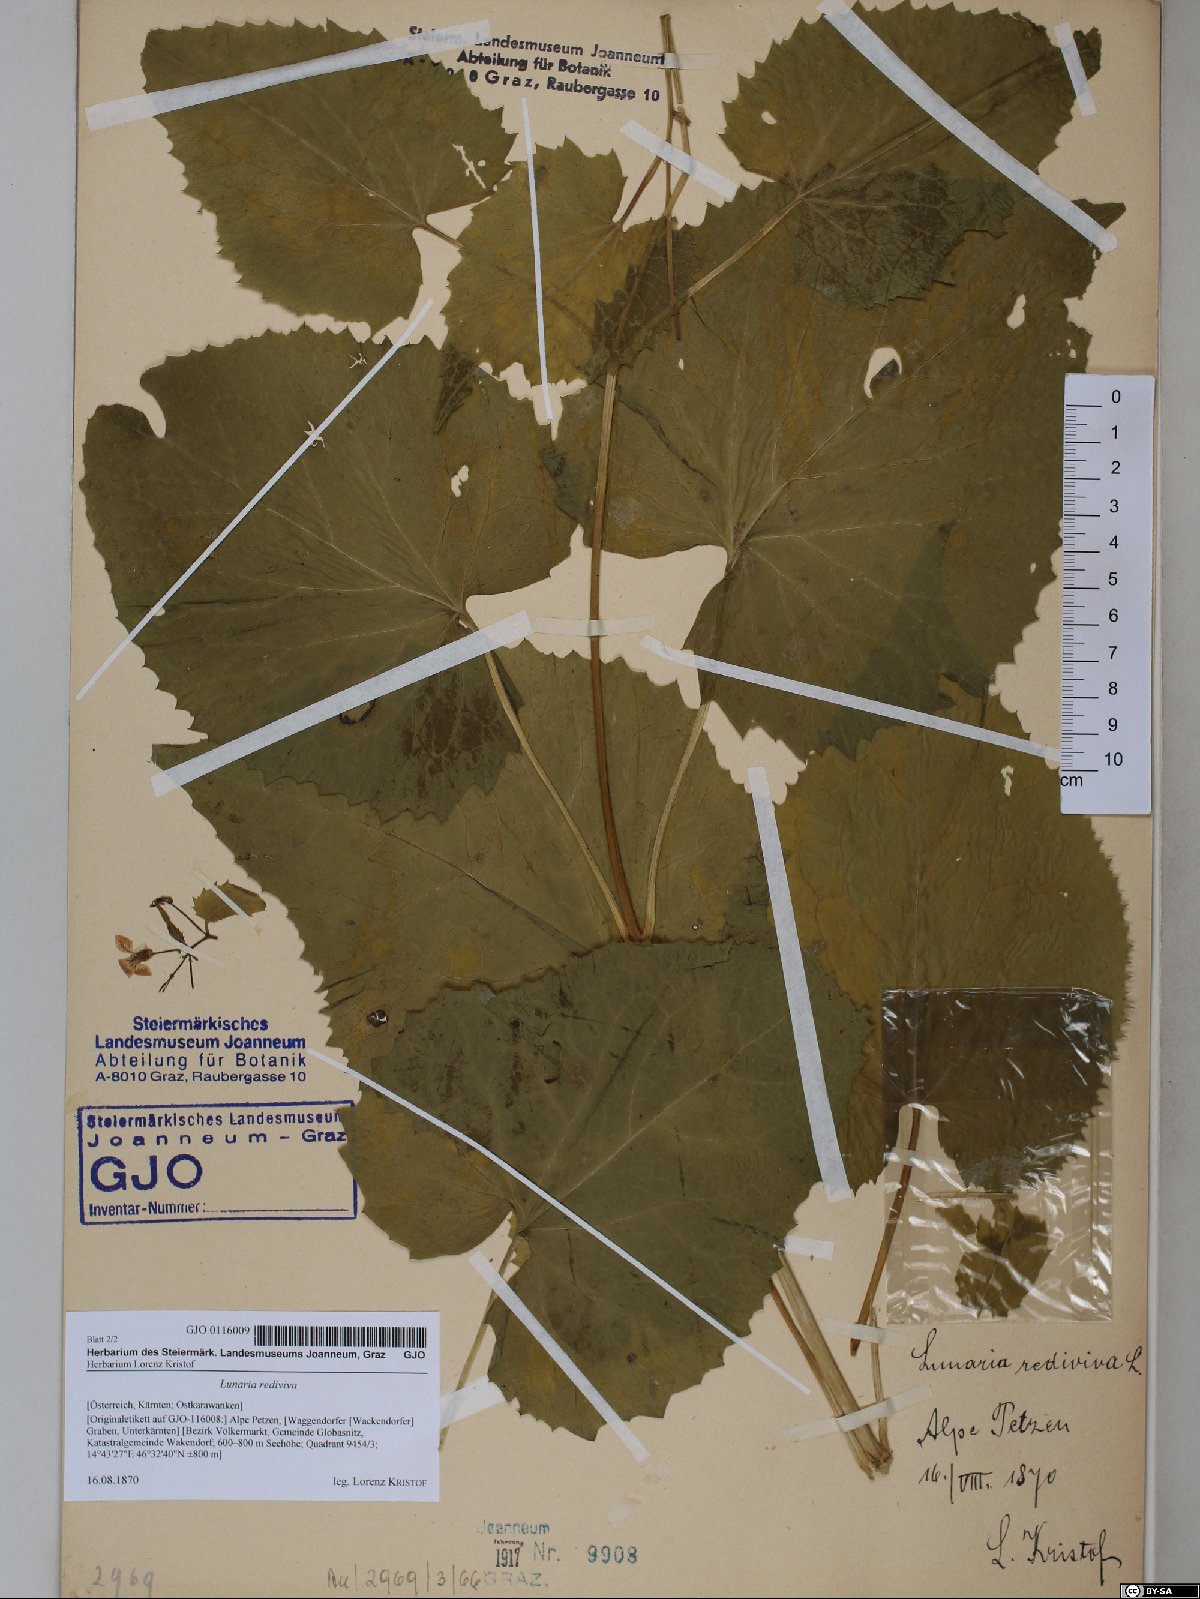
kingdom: Plantae
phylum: Tracheophyta
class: Magnoliopsida
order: Brassicales
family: Brassicaceae
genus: Lunaria
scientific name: Lunaria rediviva
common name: Perennial honesty
